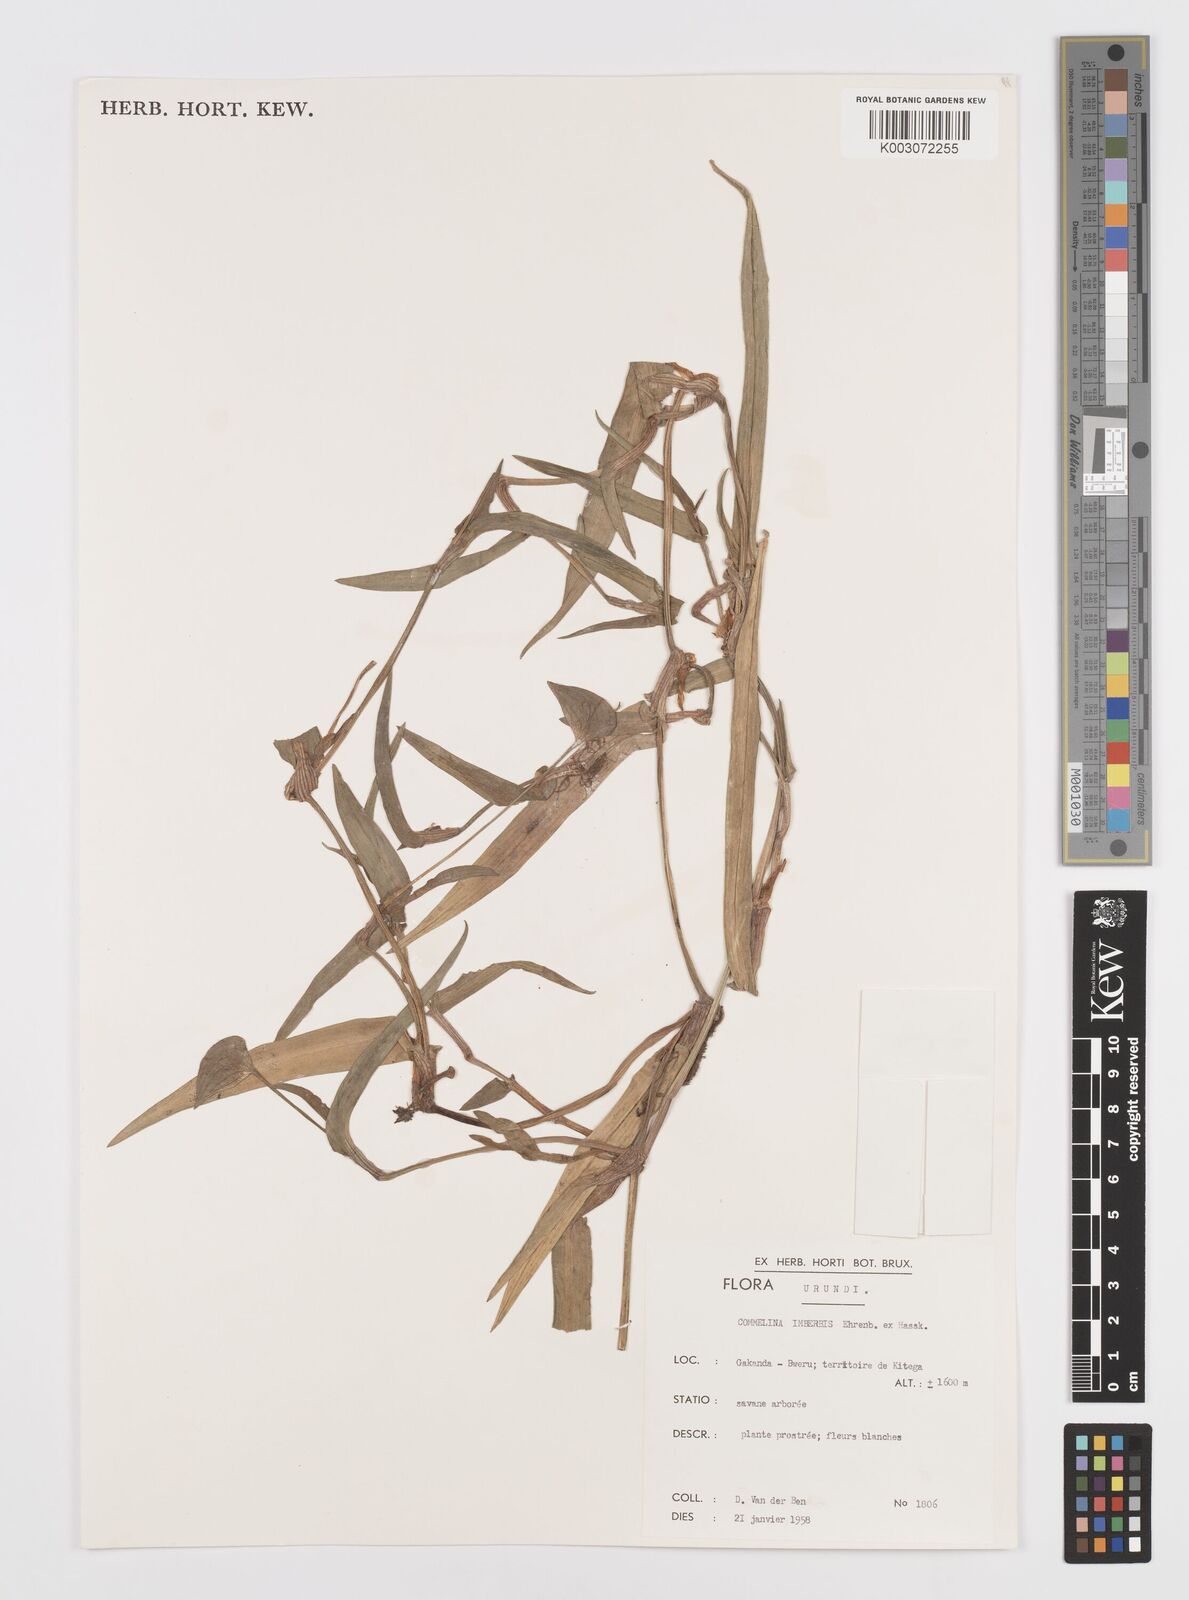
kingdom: Plantae
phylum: Tracheophyta
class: Liliopsida
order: Commelinales
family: Commelinaceae
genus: Commelina
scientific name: Commelina imberbis
